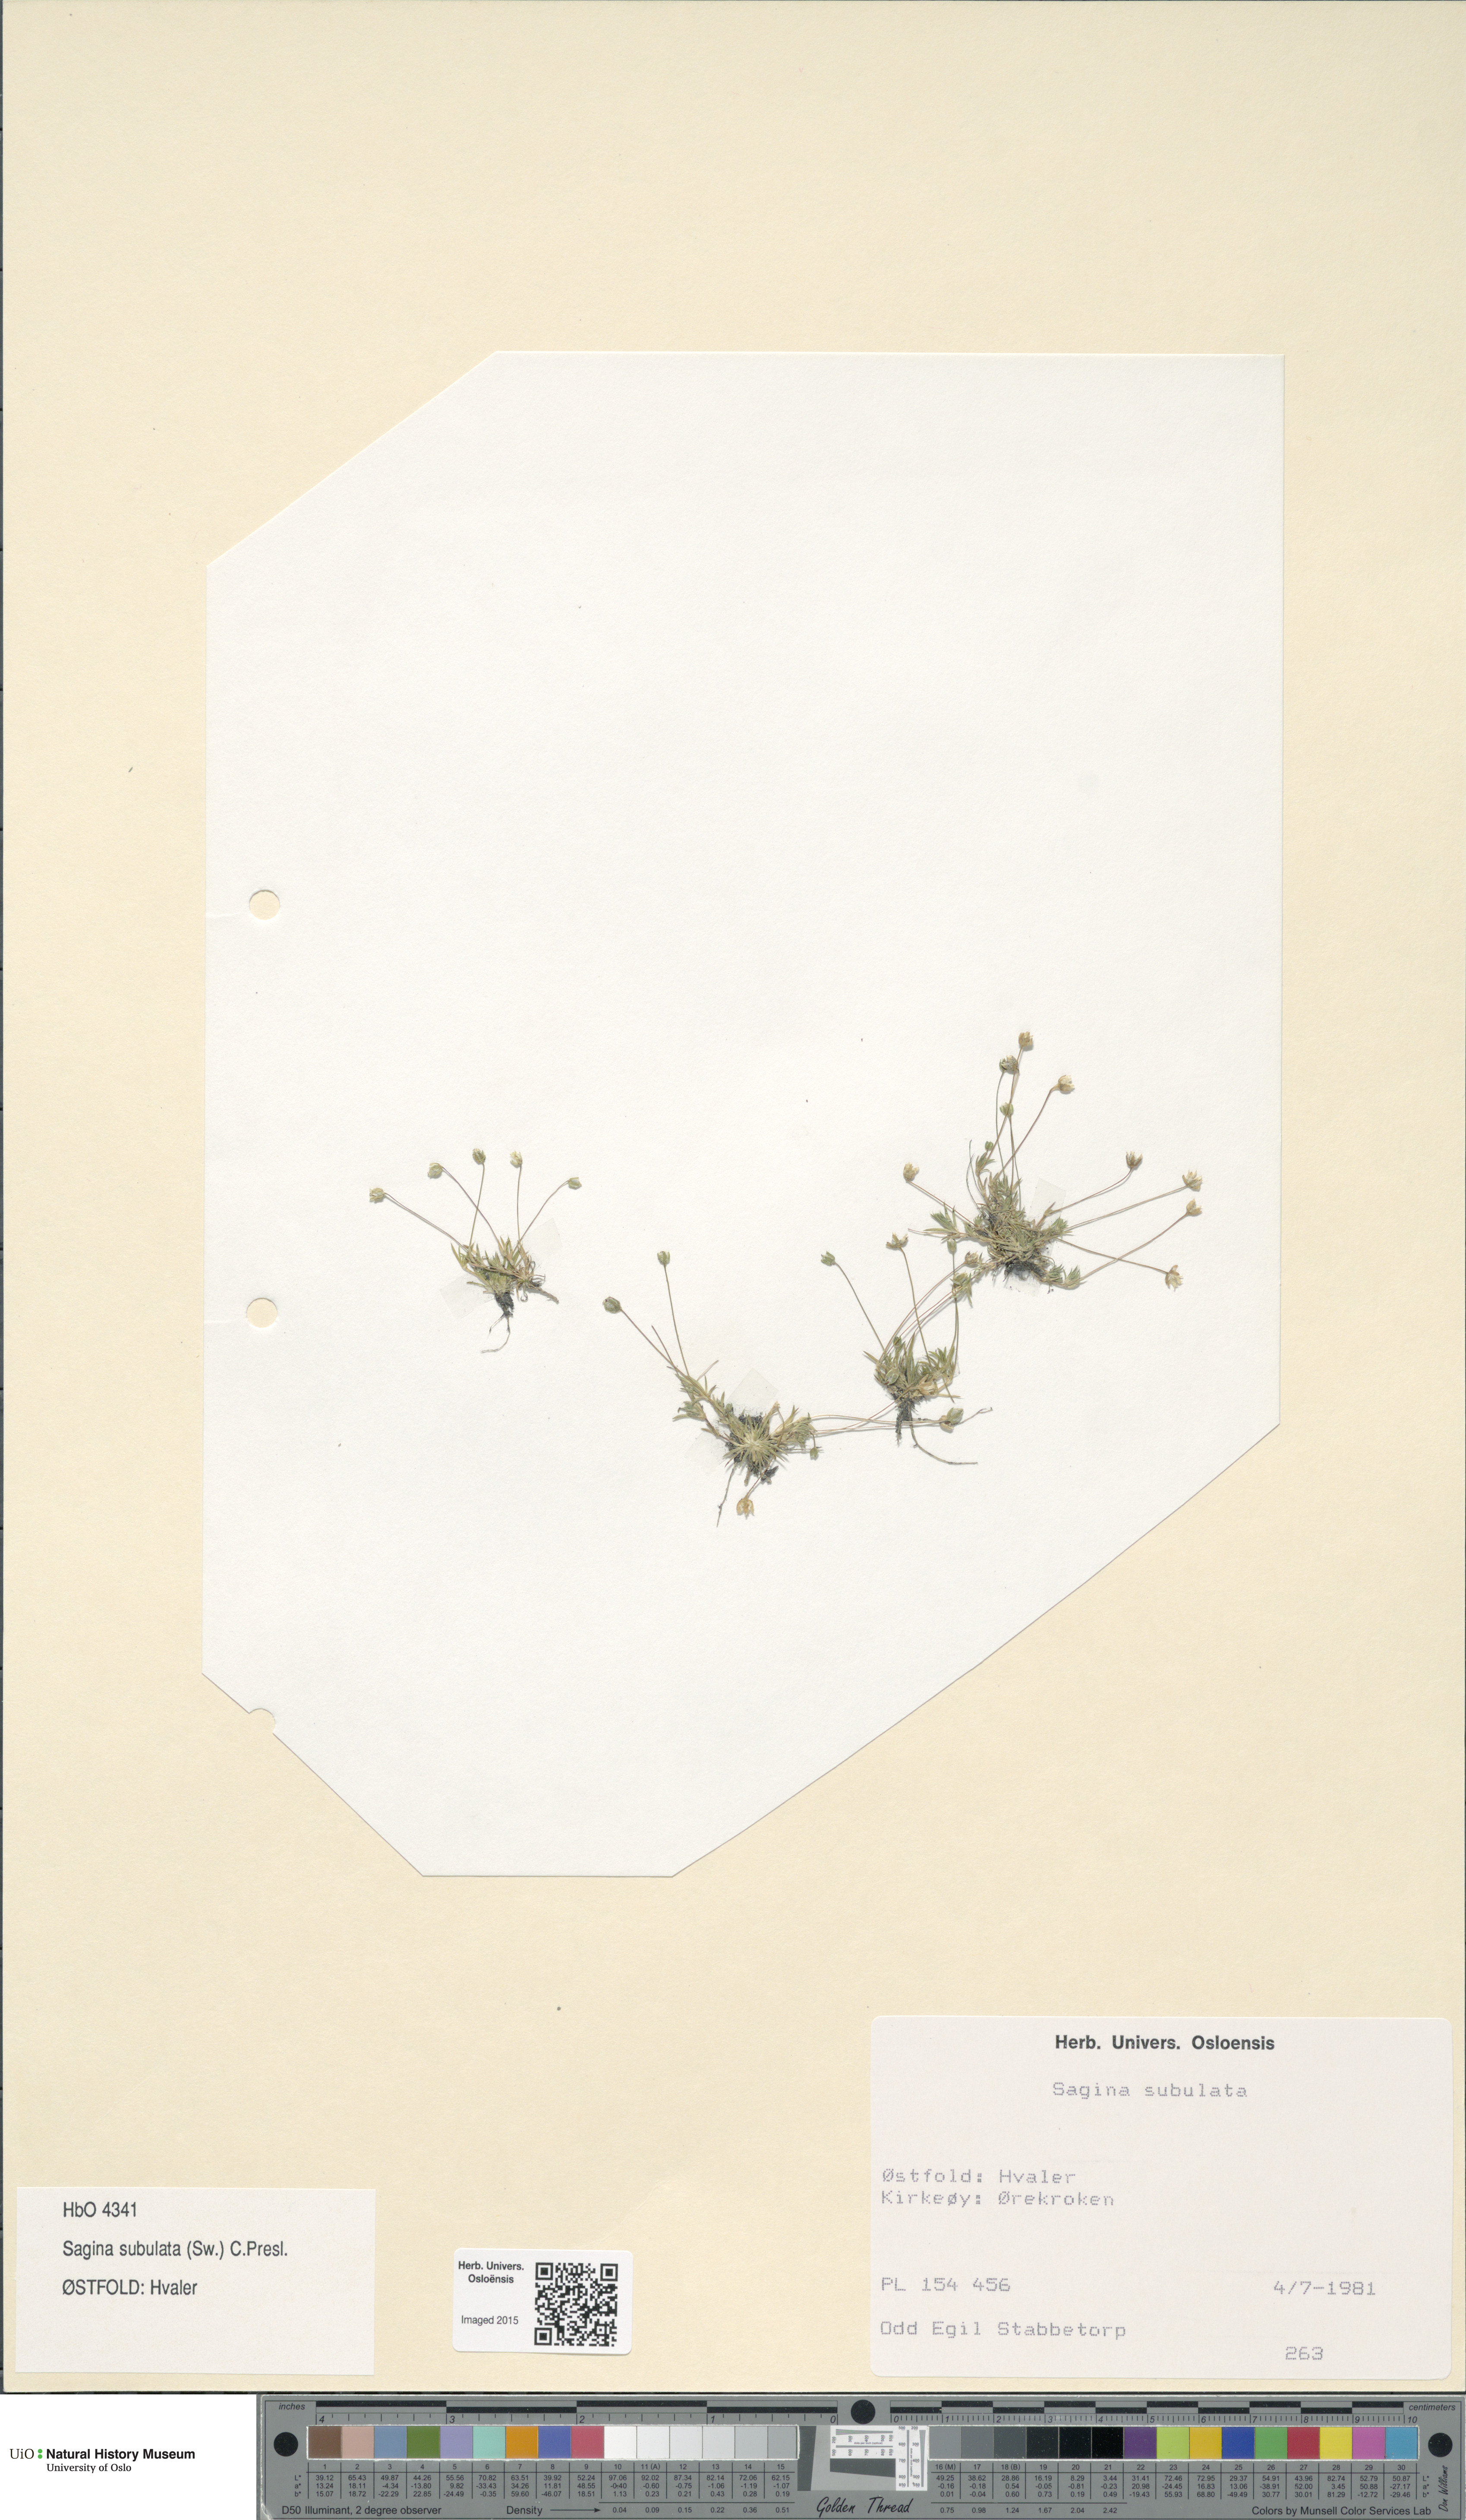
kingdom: Plantae
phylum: Tracheophyta
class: Magnoliopsida
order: Caryophyllales
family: Caryophyllaceae
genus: Sagina
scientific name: Sagina alexandrae
